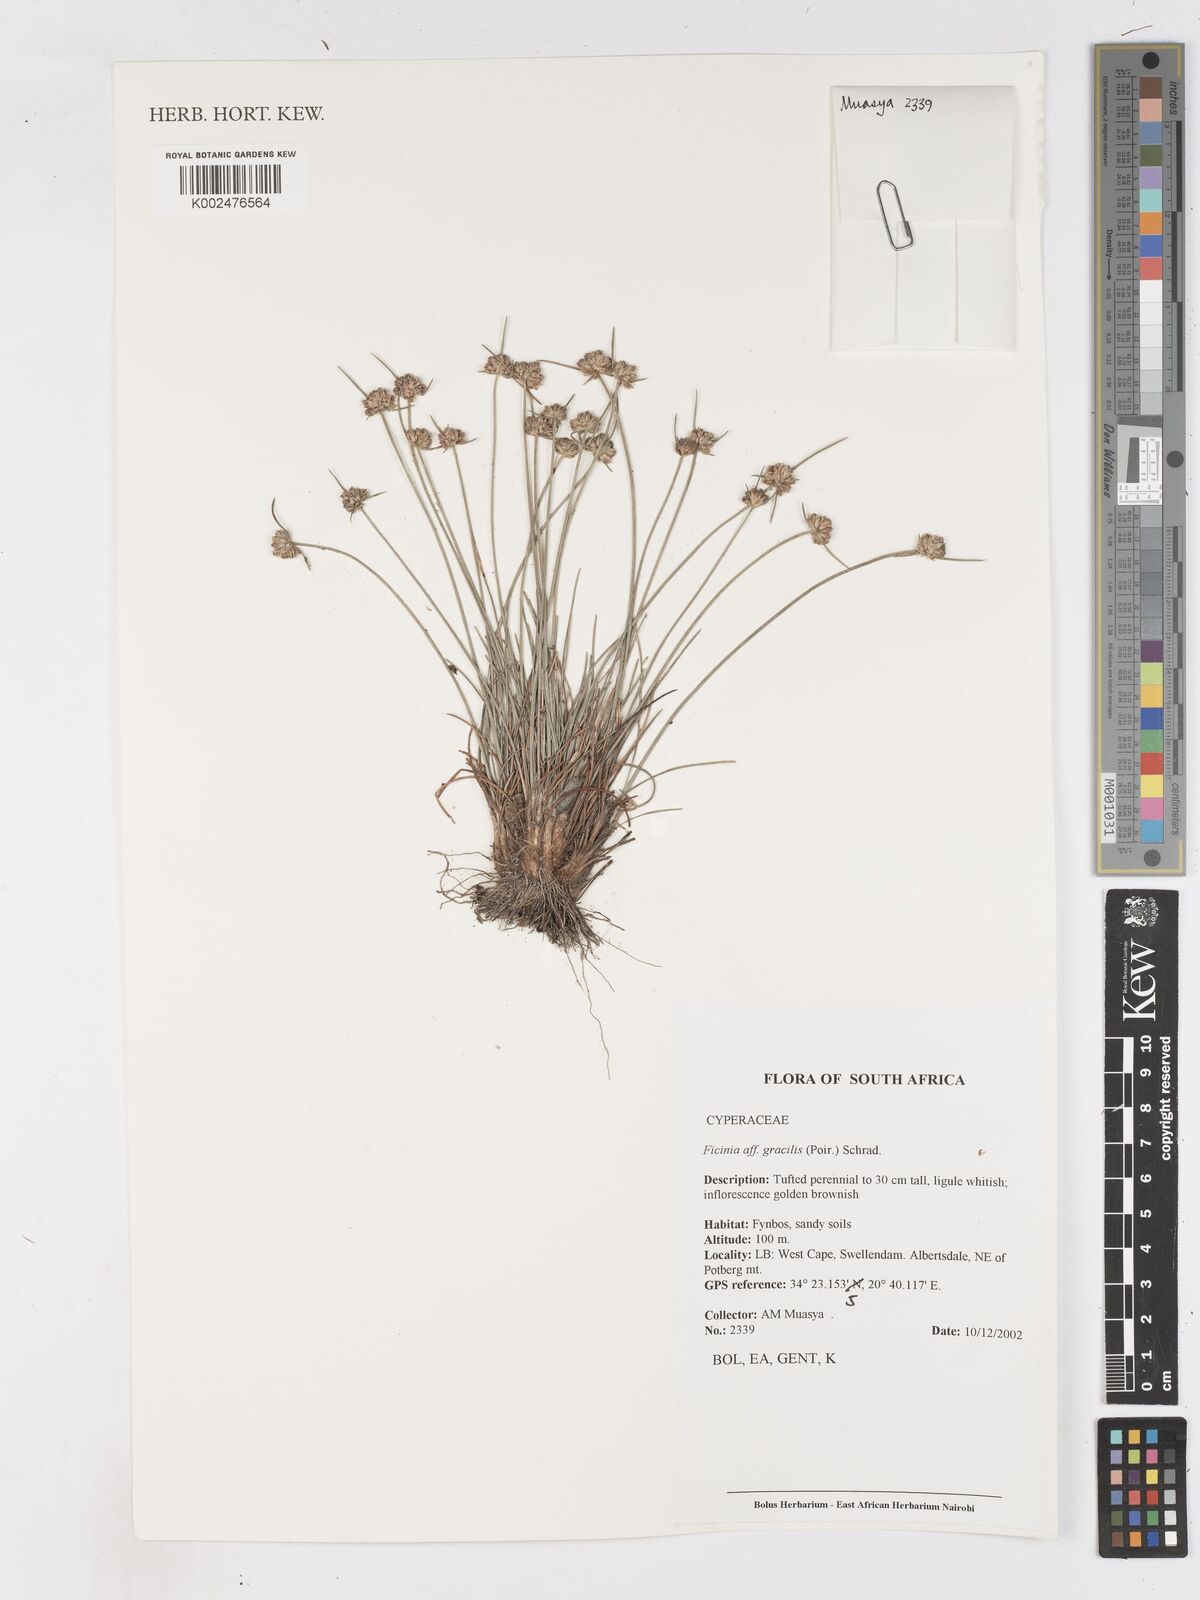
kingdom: Plantae
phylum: Tracheophyta
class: Liliopsida
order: Poales
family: Cyperaceae
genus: Ficinia
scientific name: Ficinia
